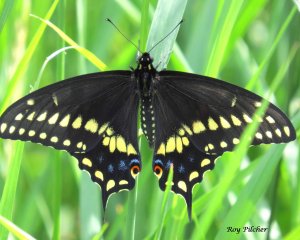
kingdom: Animalia
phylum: Arthropoda
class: Insecta
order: Lepidoptera
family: Papilionidae
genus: Papilio
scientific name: Papilio polyxenes
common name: Black Swallowtail
